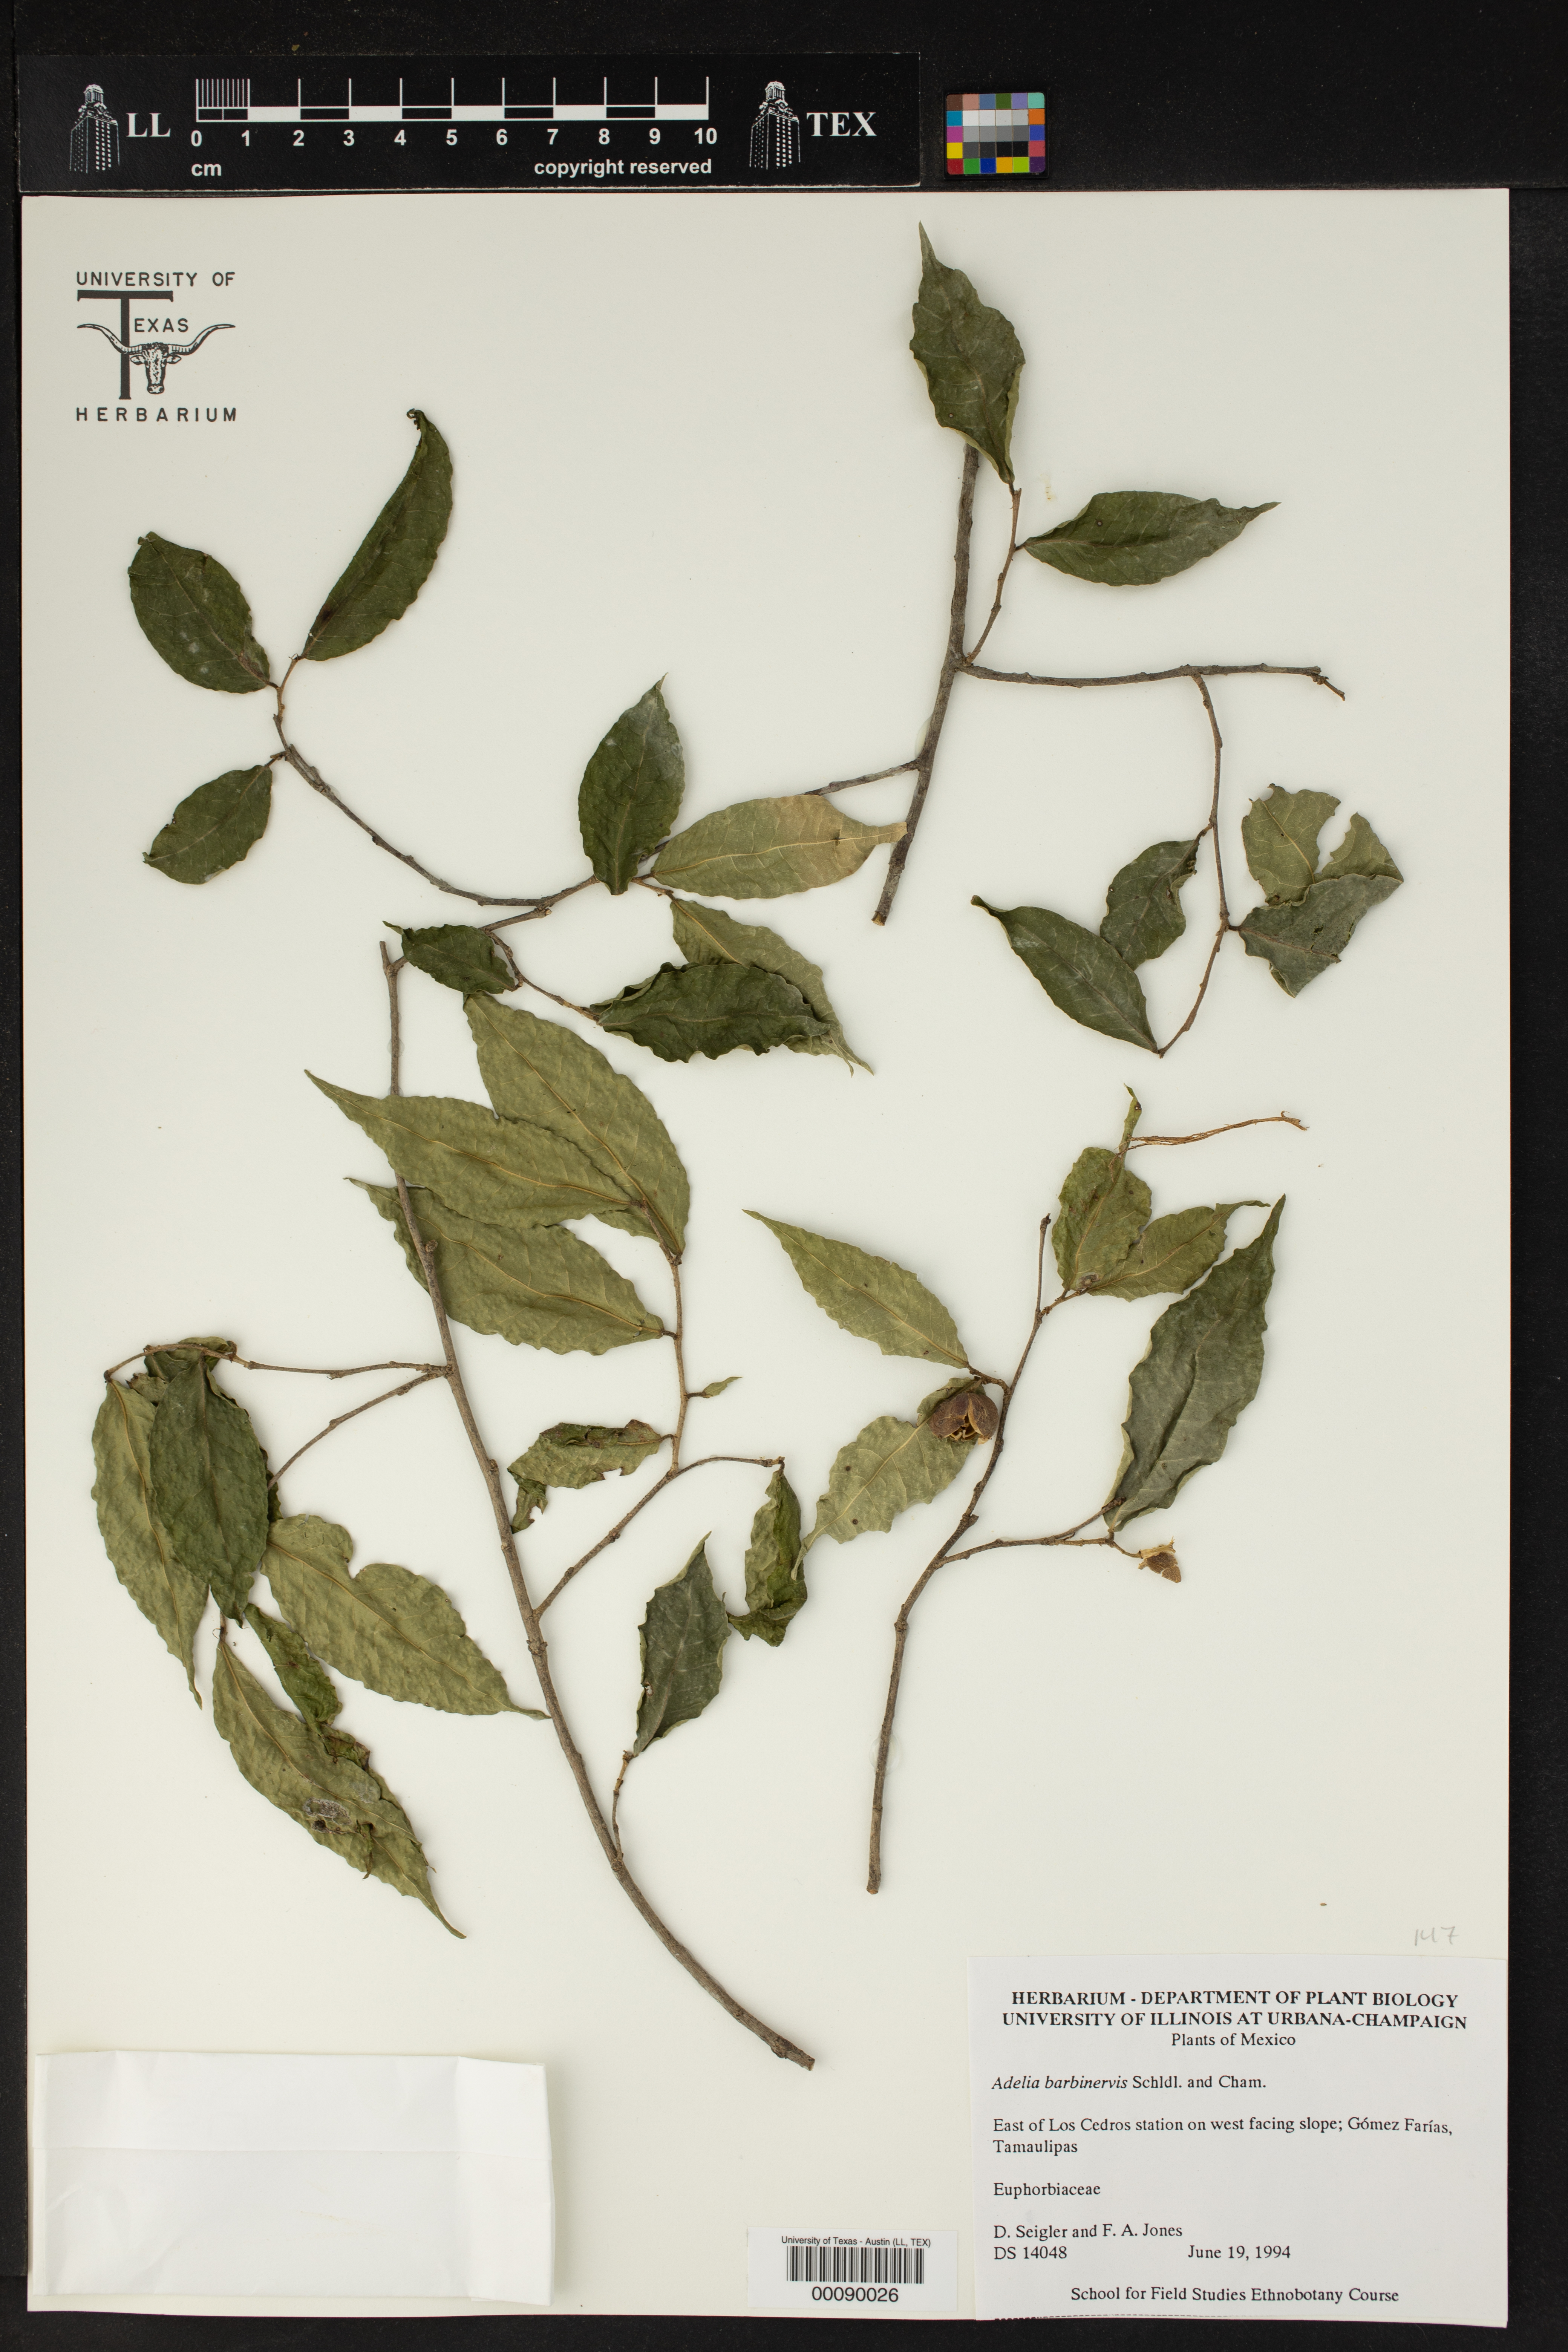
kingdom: Plantae
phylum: Tracheophyta
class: Magnoliopsida
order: Malpighiales
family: Euphorbiaceae
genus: Adelia
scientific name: Adelia barbinervis
